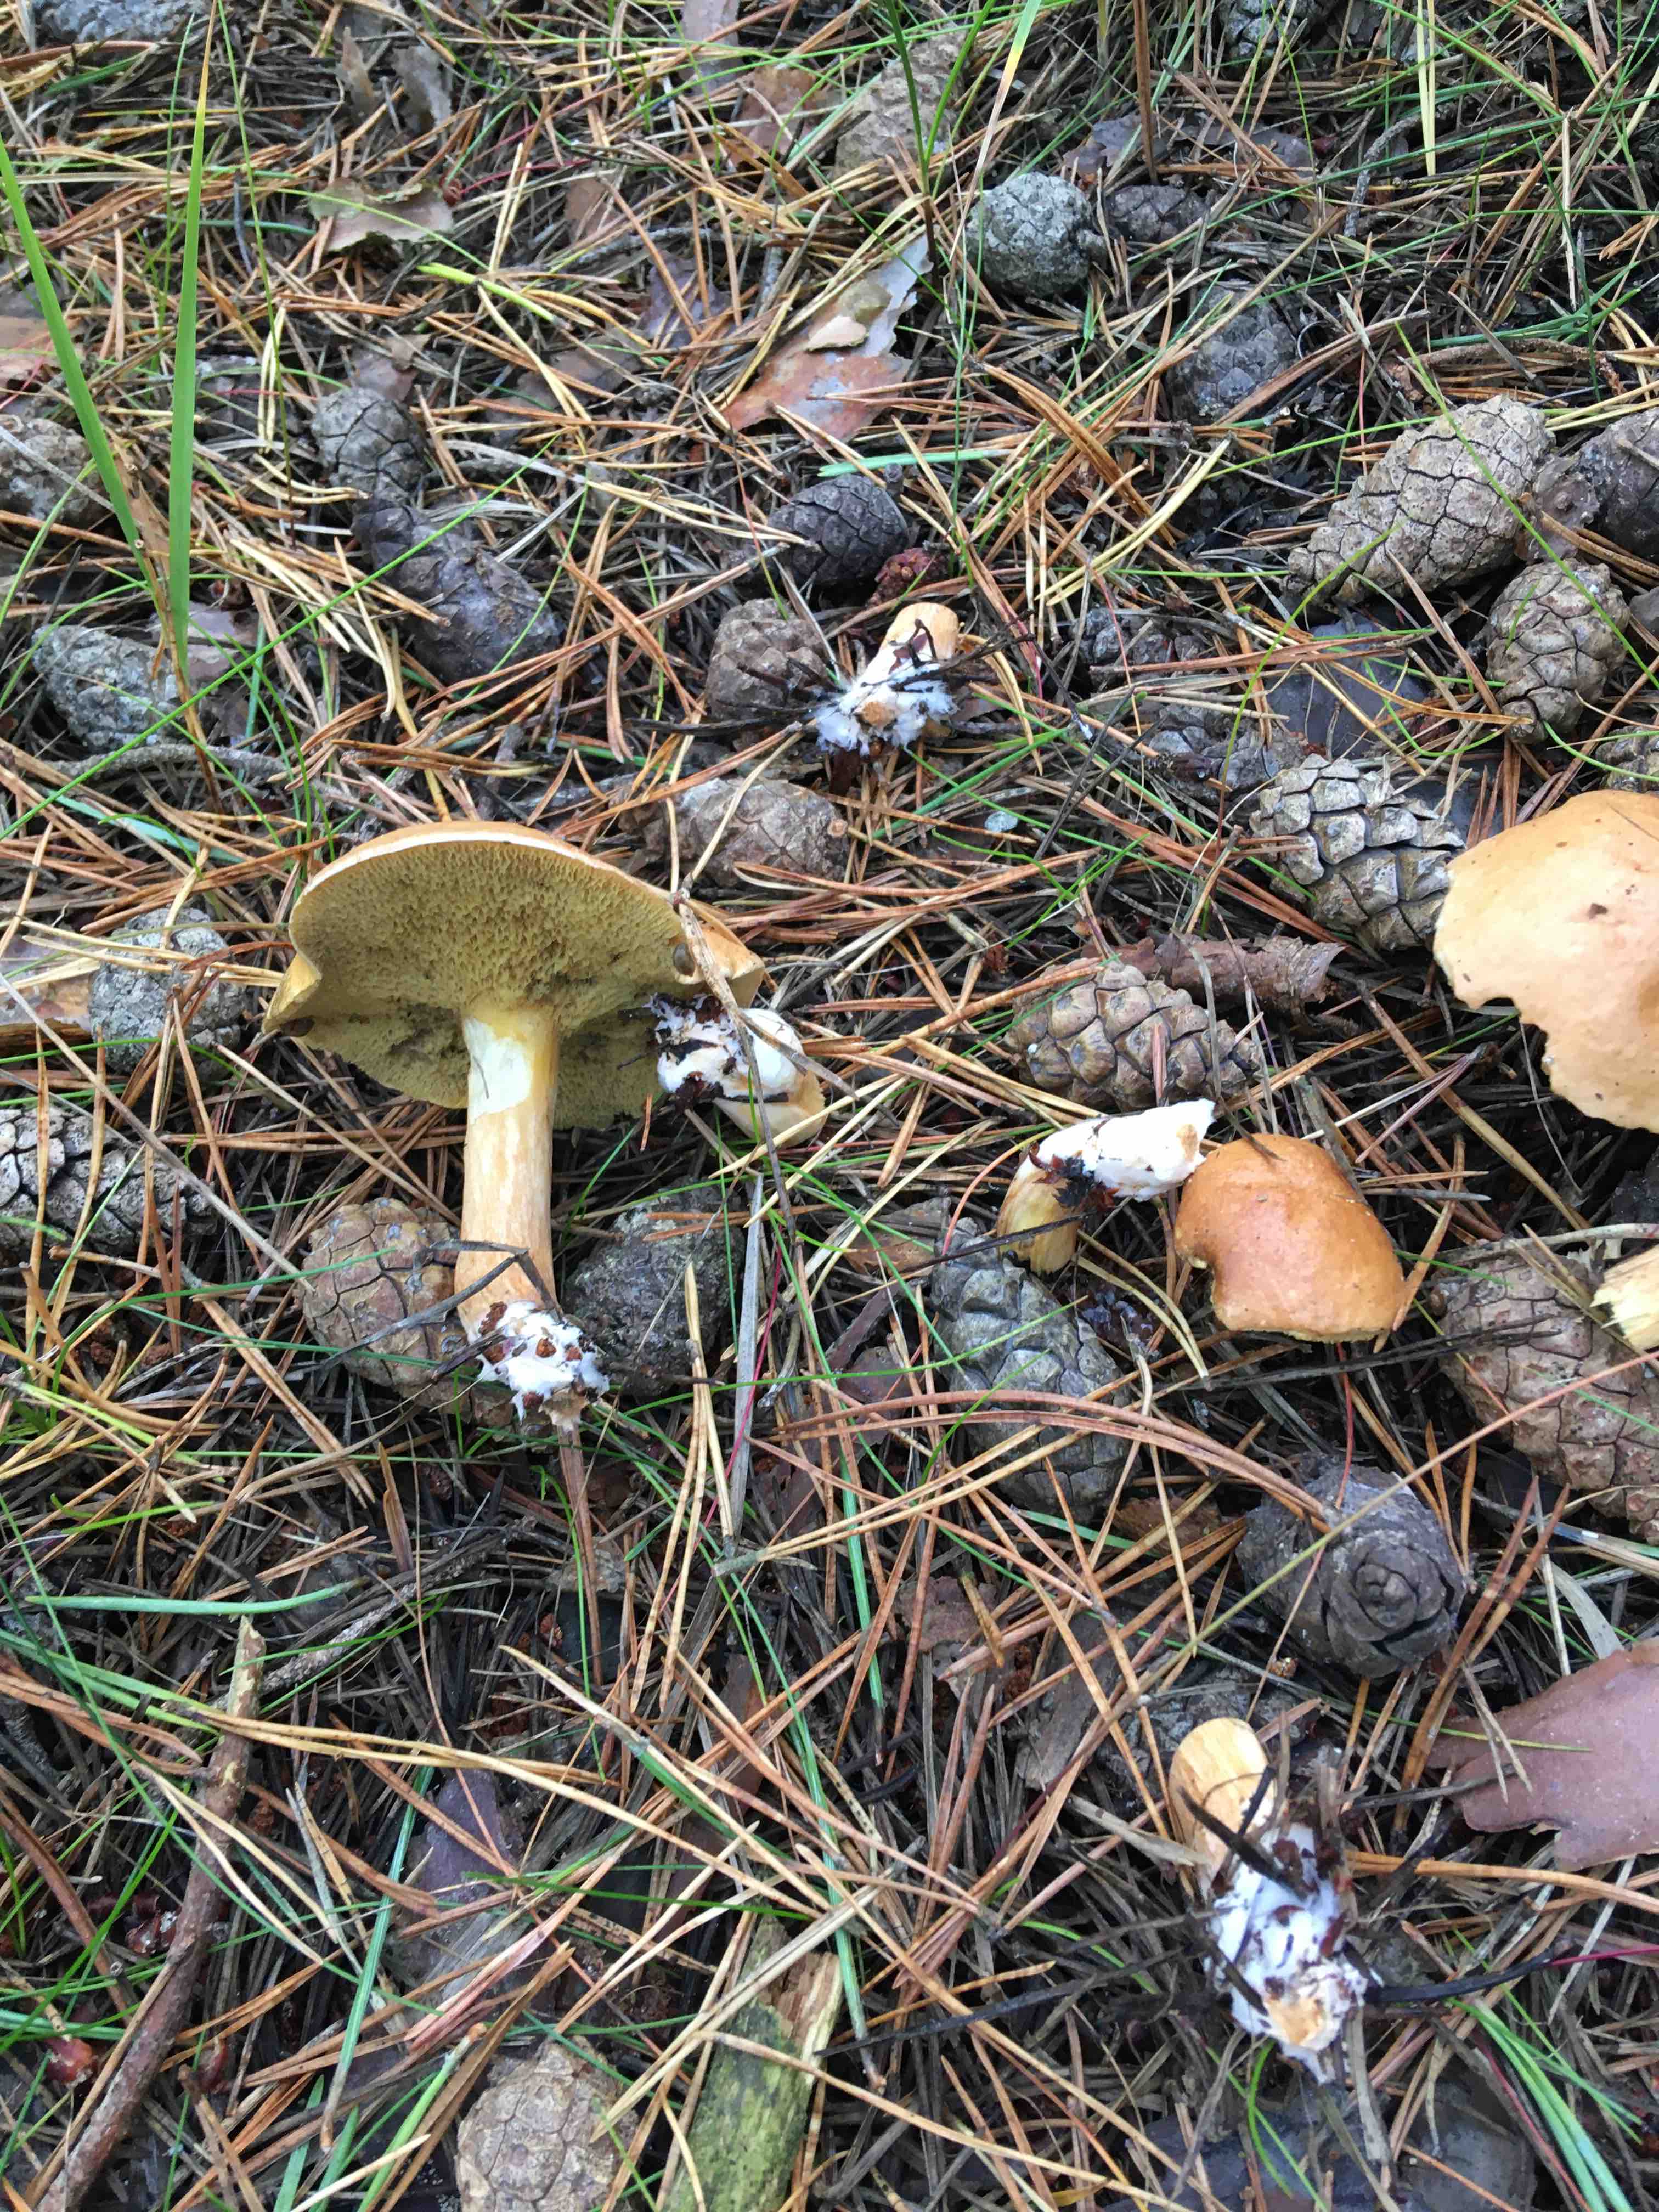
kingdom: Fungi
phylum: Basidiomycota
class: Agaricomycetes
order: Boletales
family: Suillaceae
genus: Suillus
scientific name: Suillus bovinus
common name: grovporet slimrørhat
